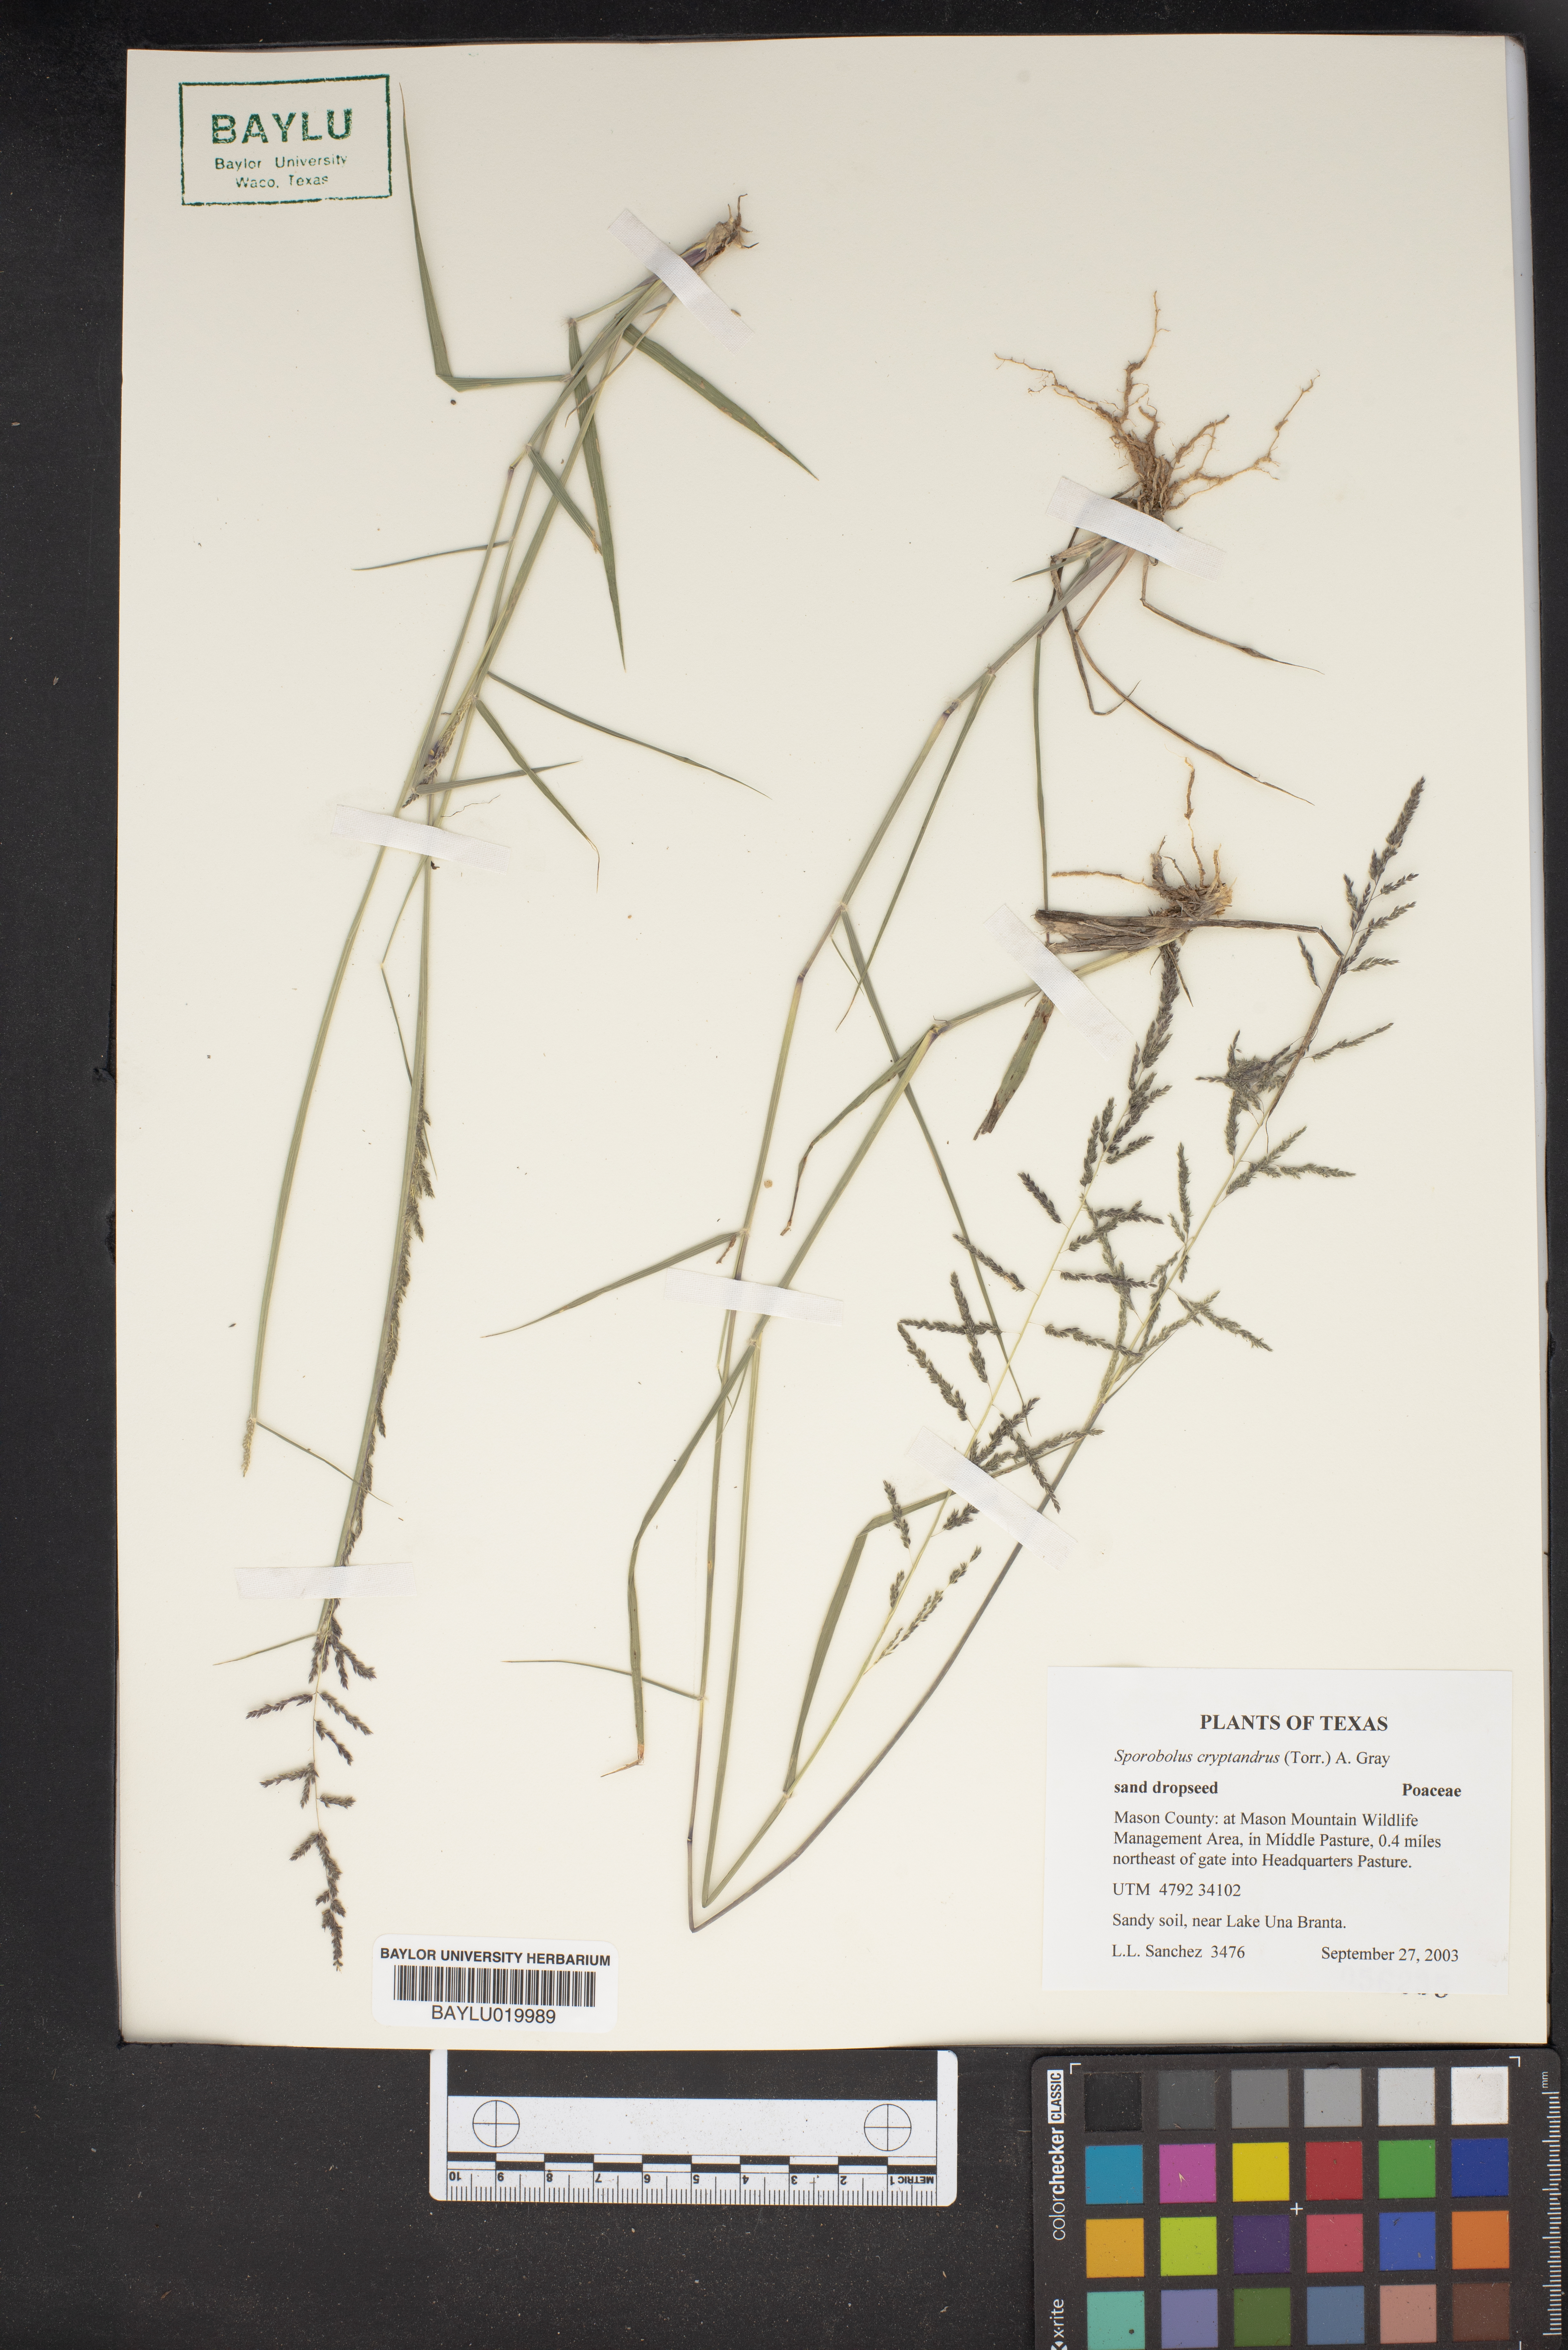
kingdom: Plantae
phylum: Tracheophyta
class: Liliopsida
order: Poales
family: Poaceae
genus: Sporobolus
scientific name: Sporobolus cryptandrus
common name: Sand dropseed
